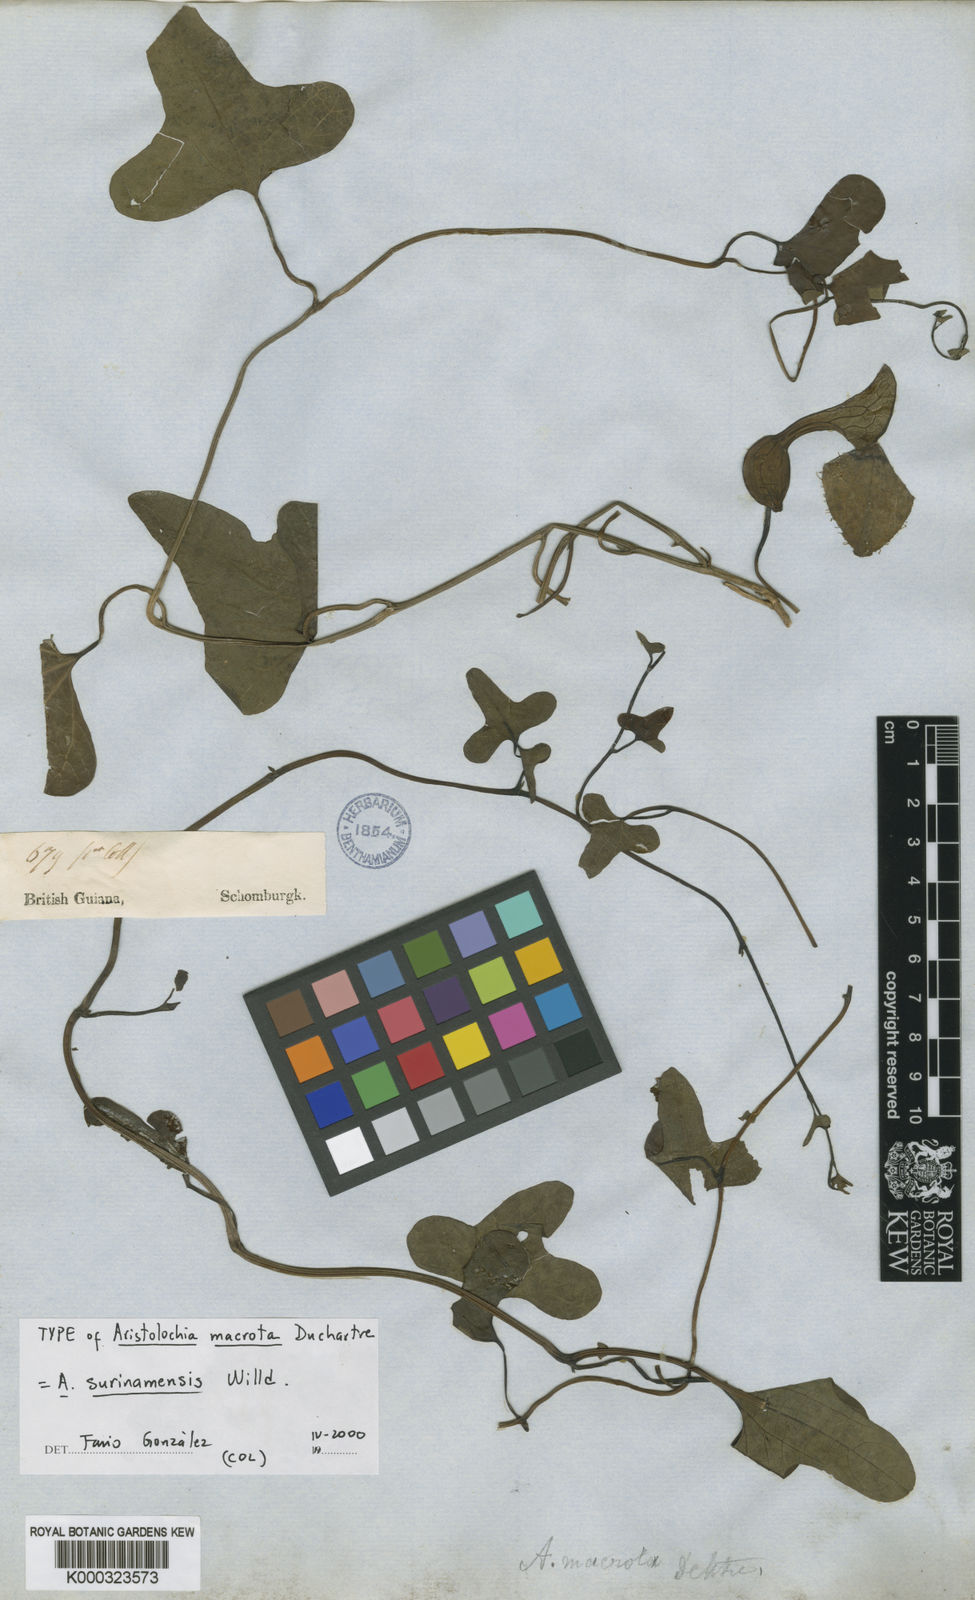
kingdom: Plantae
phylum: Tracheophyta
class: Magnoliopsida
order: Piperales
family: Aristolochiaceae
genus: Aristolochia
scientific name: Aristolochia
